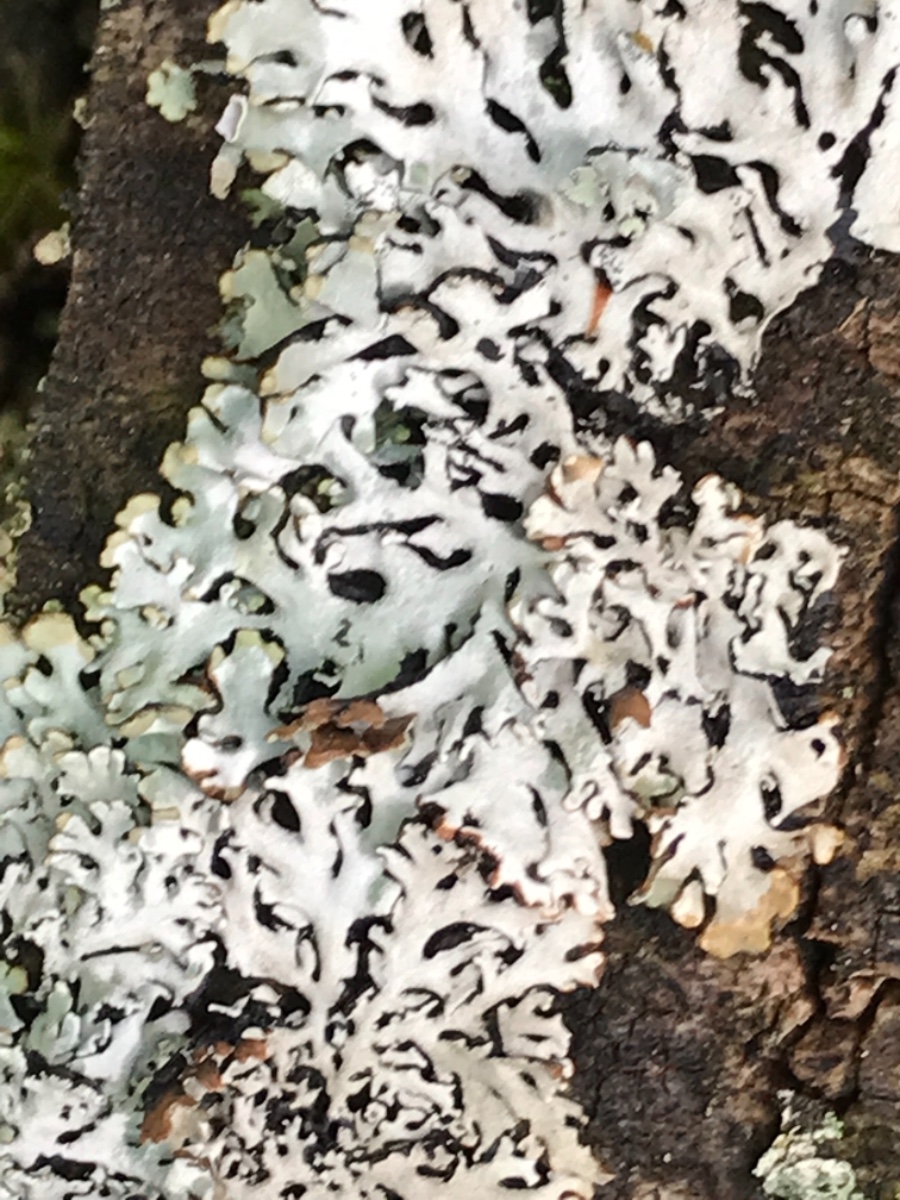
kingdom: Fungi
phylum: Ascomycota
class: Lecanoromycetes
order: Lecanorales
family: Parmeliaceae
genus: Hypogymnia
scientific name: Hypogymnia physodes
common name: almindelig kvistlav
